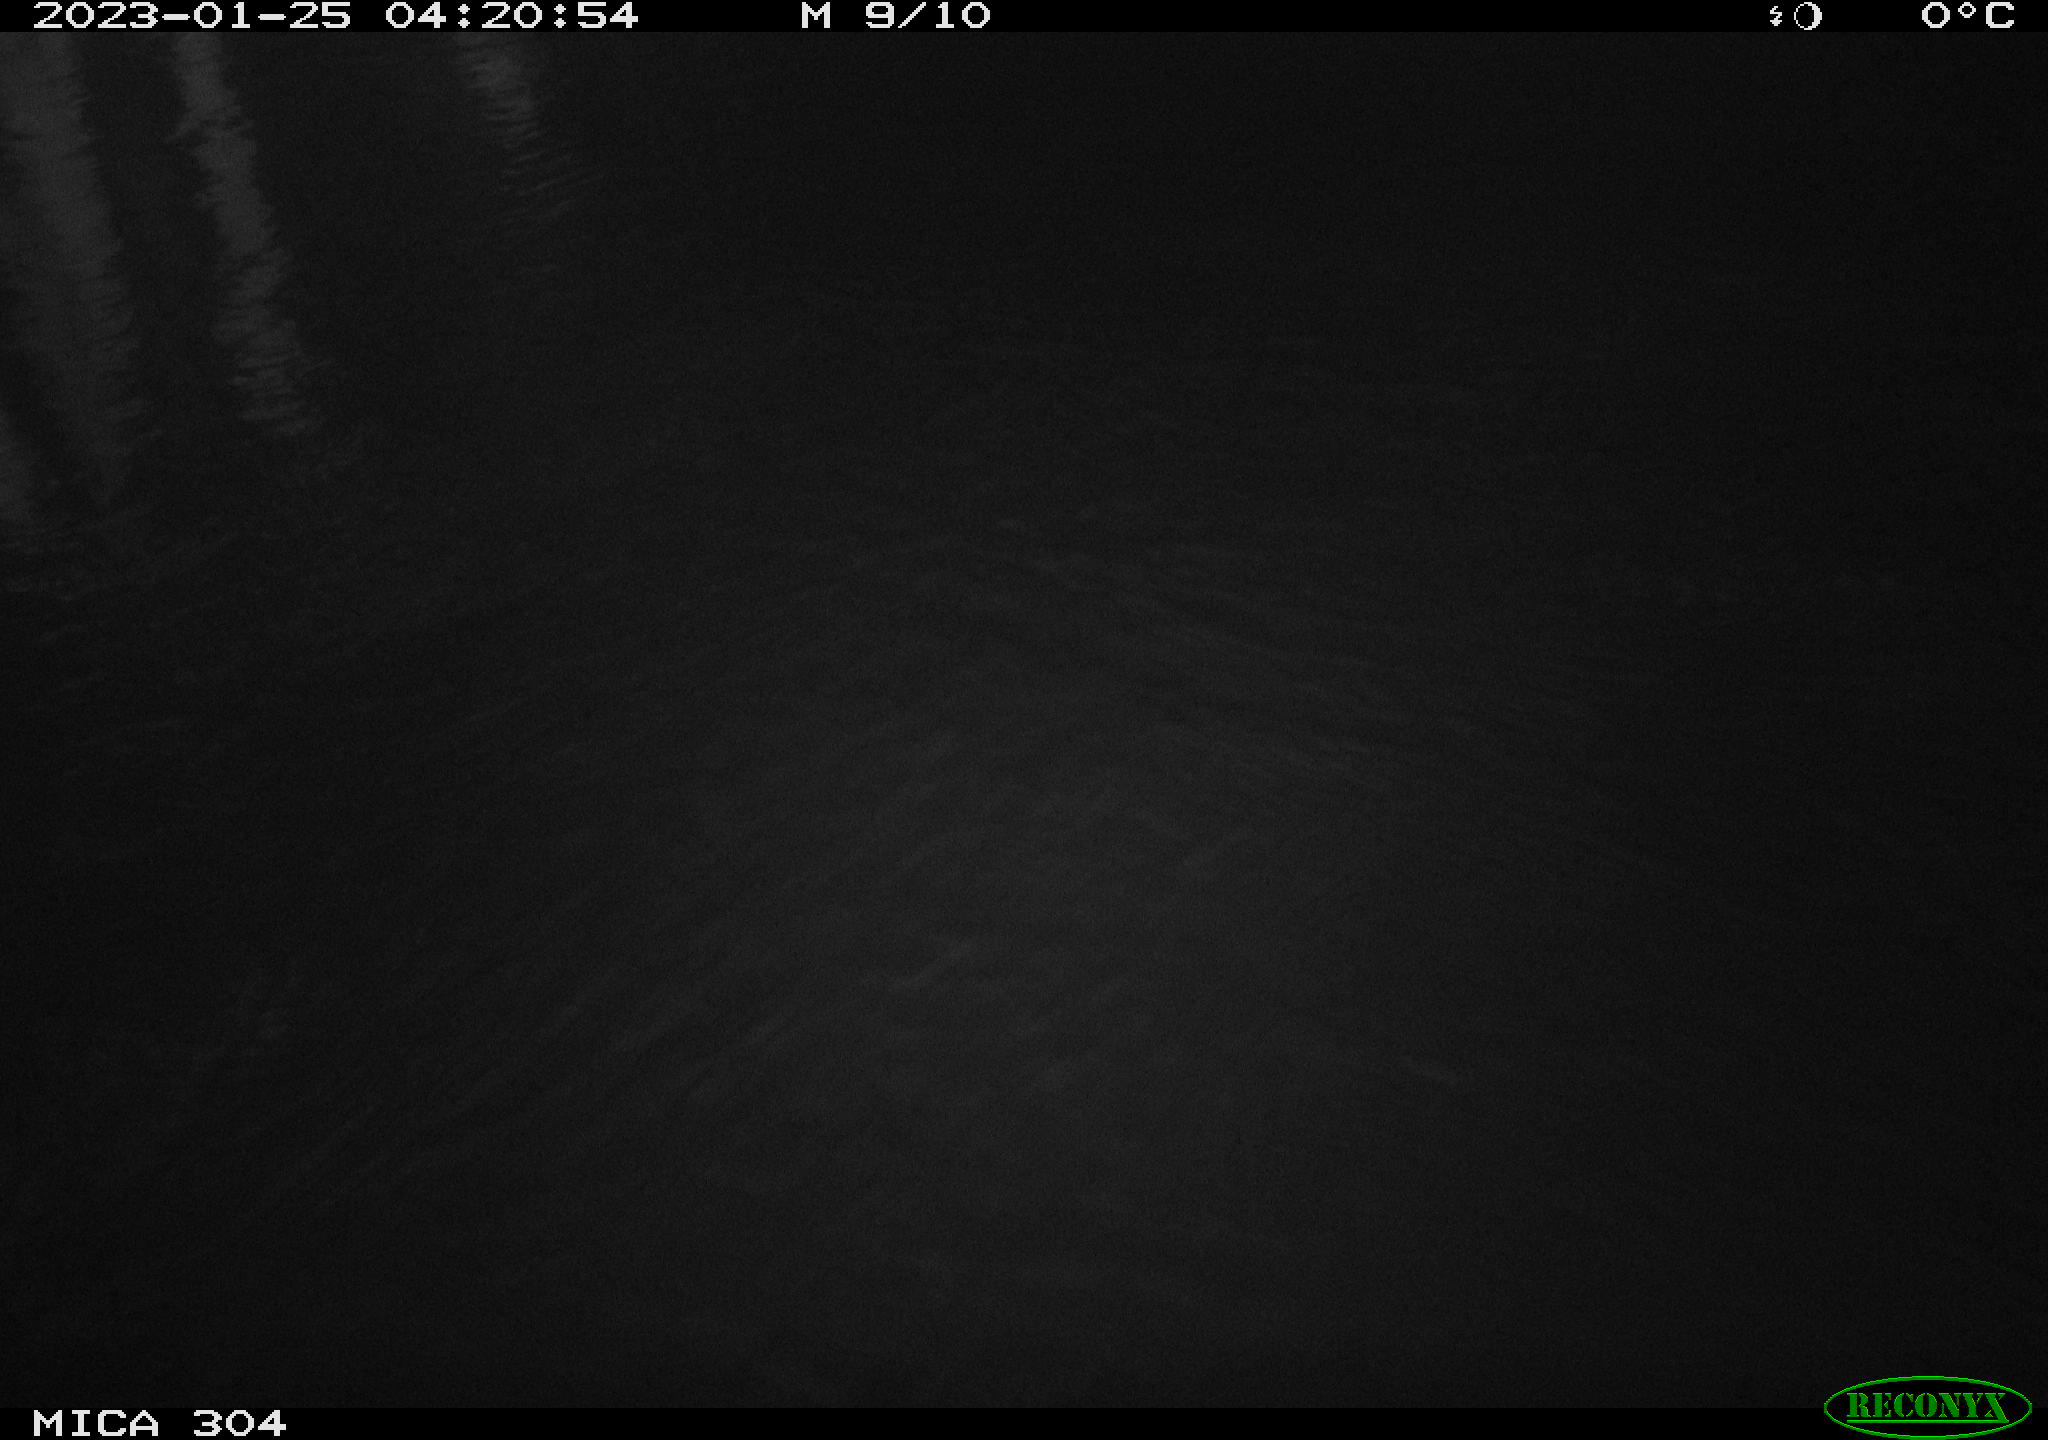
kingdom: Animalia
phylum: Chordata
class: Mammalia
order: Rodentia
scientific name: Rodentia
